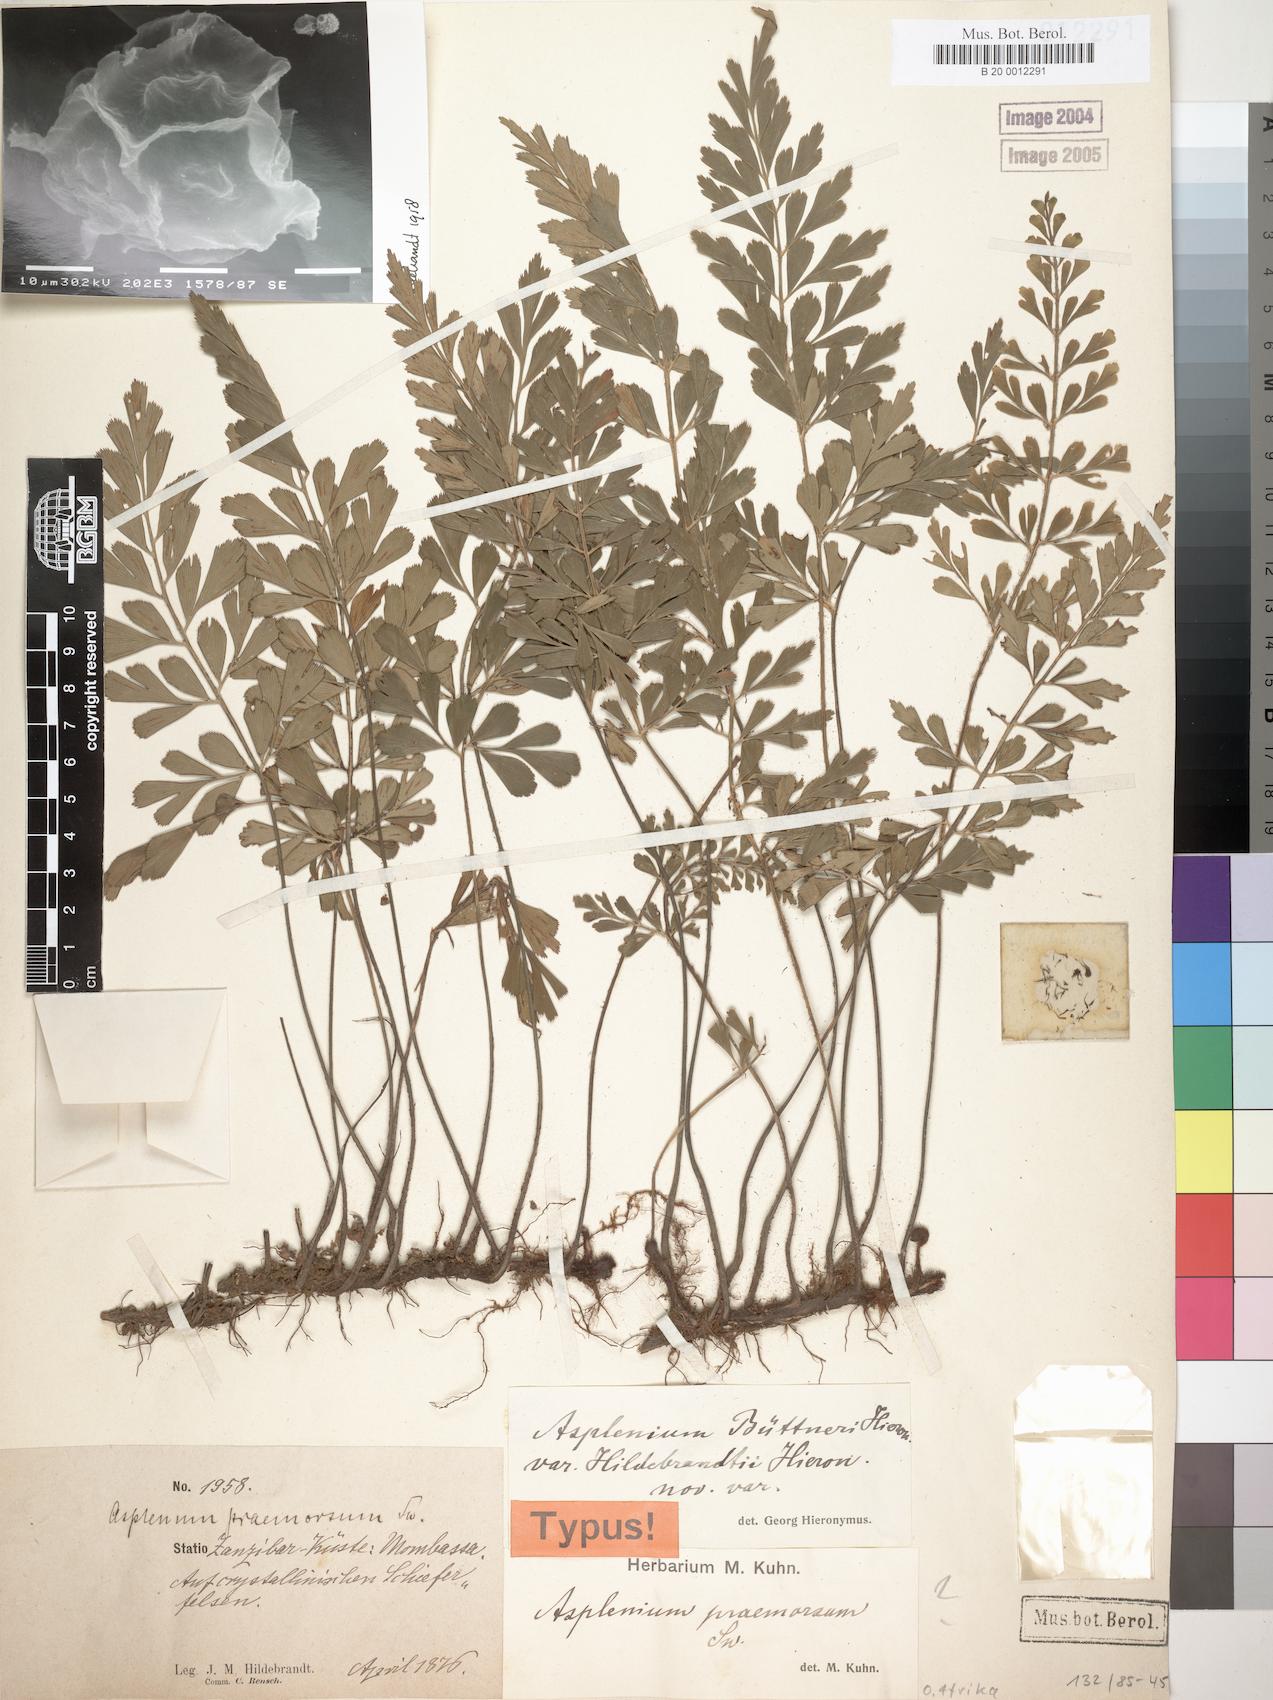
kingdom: Plantae
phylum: Tracheophyta
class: Polypodiopsida
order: Polypodiales
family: Aspleniaceae
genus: Asplenium
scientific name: Asplenium hildebrandtianum
